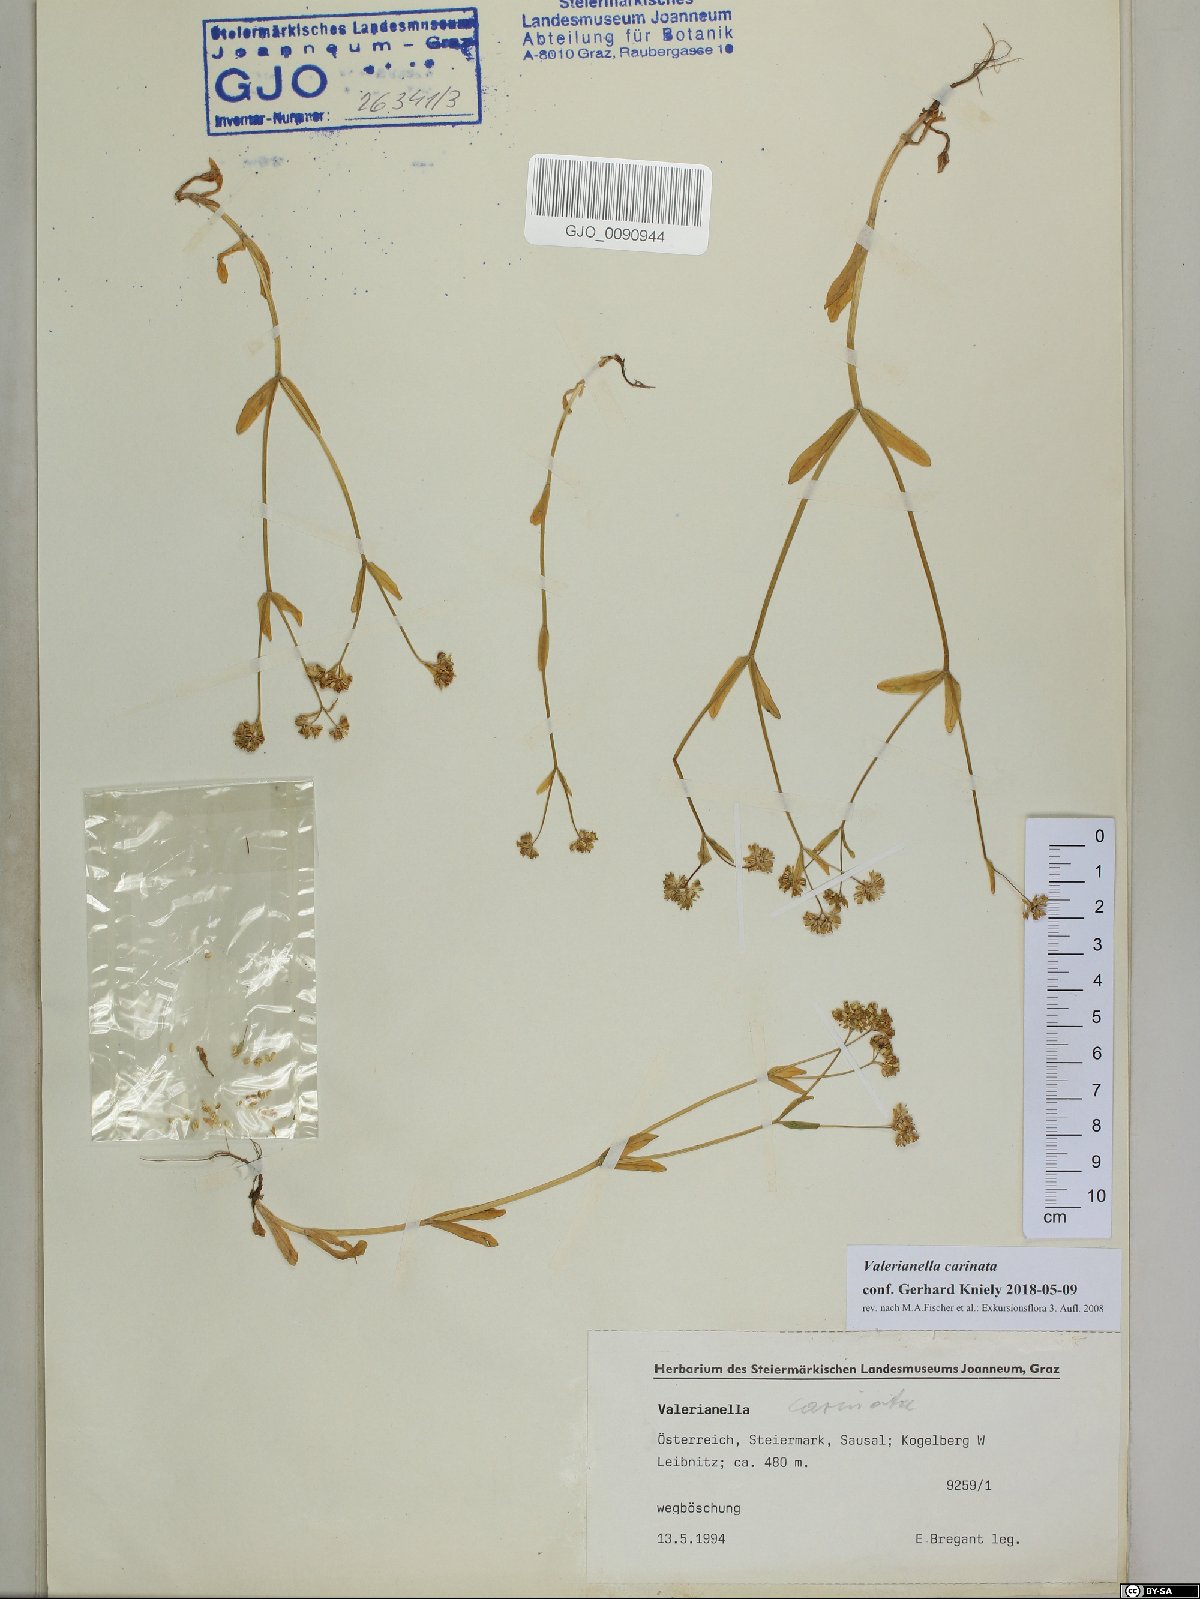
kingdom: Plantae
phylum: Tracheophyta
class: Magnoliopsida
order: Dipsacales
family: Caprifoliaceae
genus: Valerianella
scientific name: Valerianella carinata
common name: Keeled-fruited cornsalad
